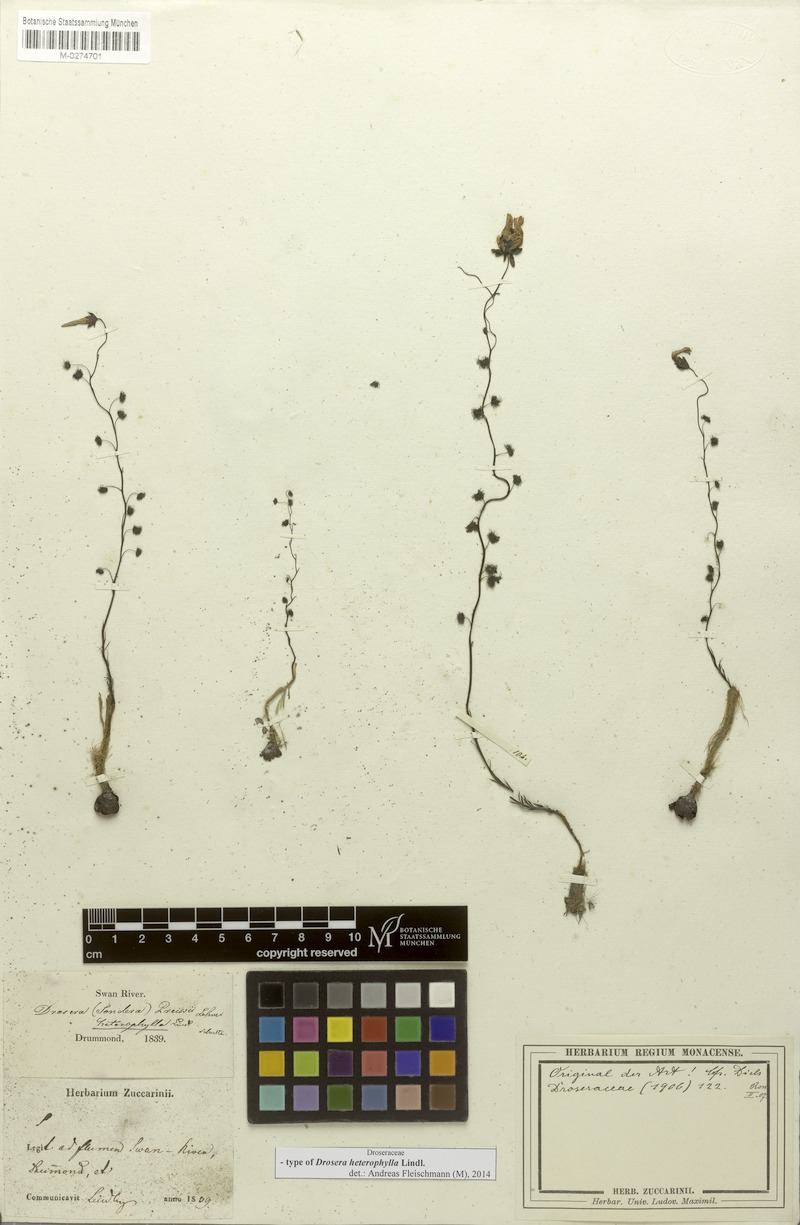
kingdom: Plantae
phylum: Tracheophyta
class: Magnoliopsida
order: Caryophyllales
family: Droseraceae
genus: Drosera
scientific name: Drosera heterophylla
